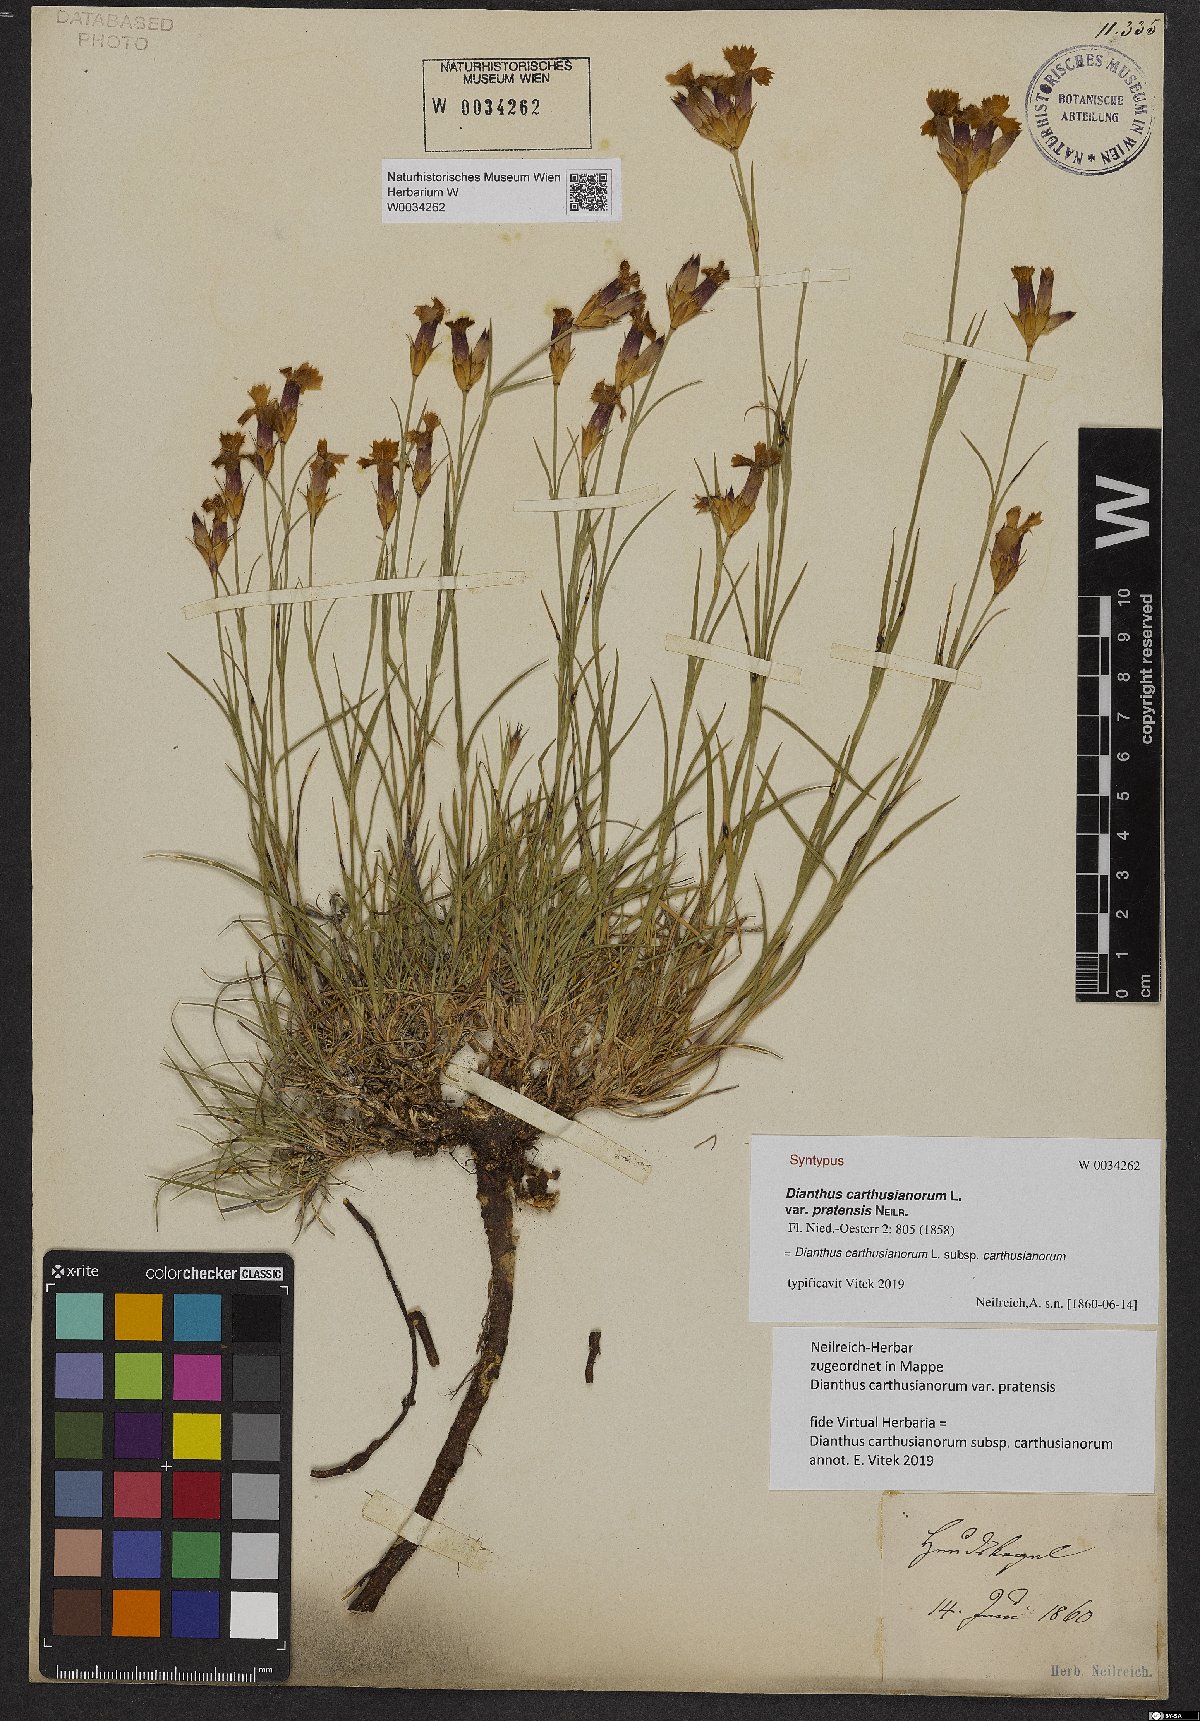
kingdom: Plantae
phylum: Tracheophyta
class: Magnoliopsida
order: Caryophyllales
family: Caryophyllaceae
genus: Dianthus
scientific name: Dianthus carthusianorum
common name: Carthusian pink
